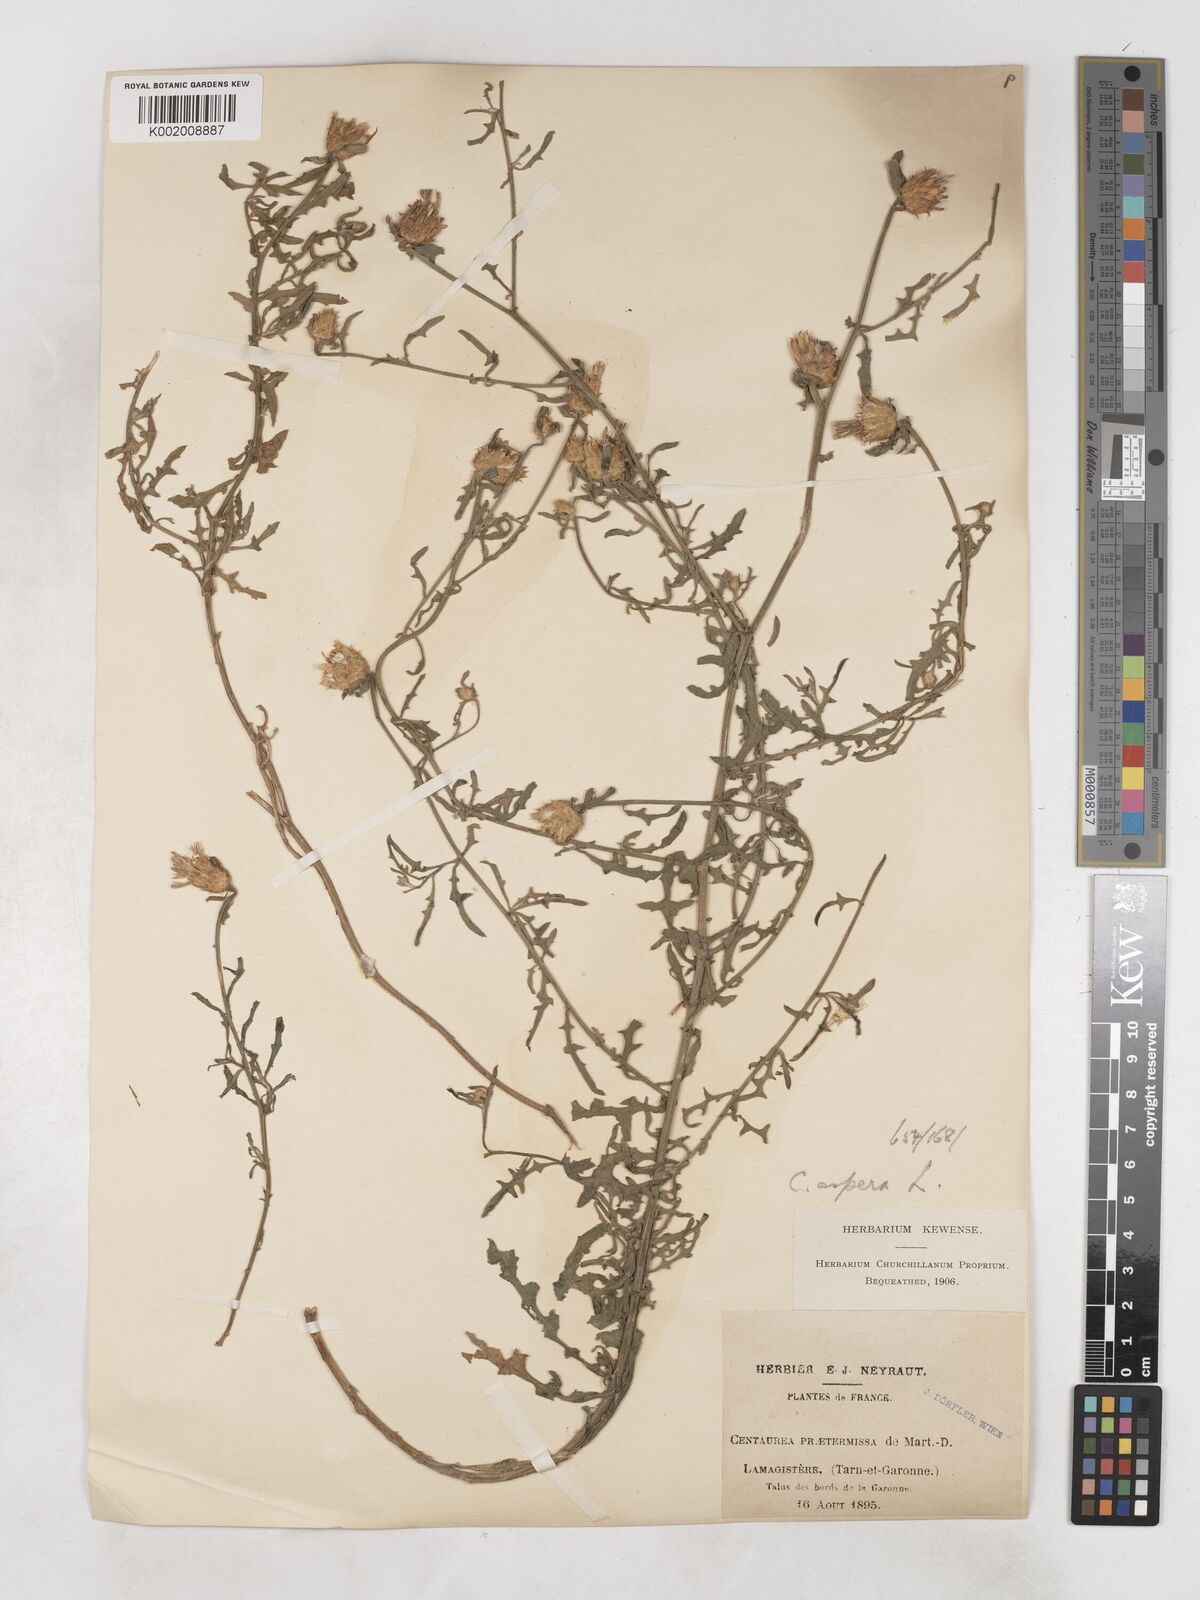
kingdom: Plantae
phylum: Tracheophyta
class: Magnoliopsida
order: Asterales
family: Asteraceae
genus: Centaurea
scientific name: Centaurea aspera
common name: Rough star-thistle
